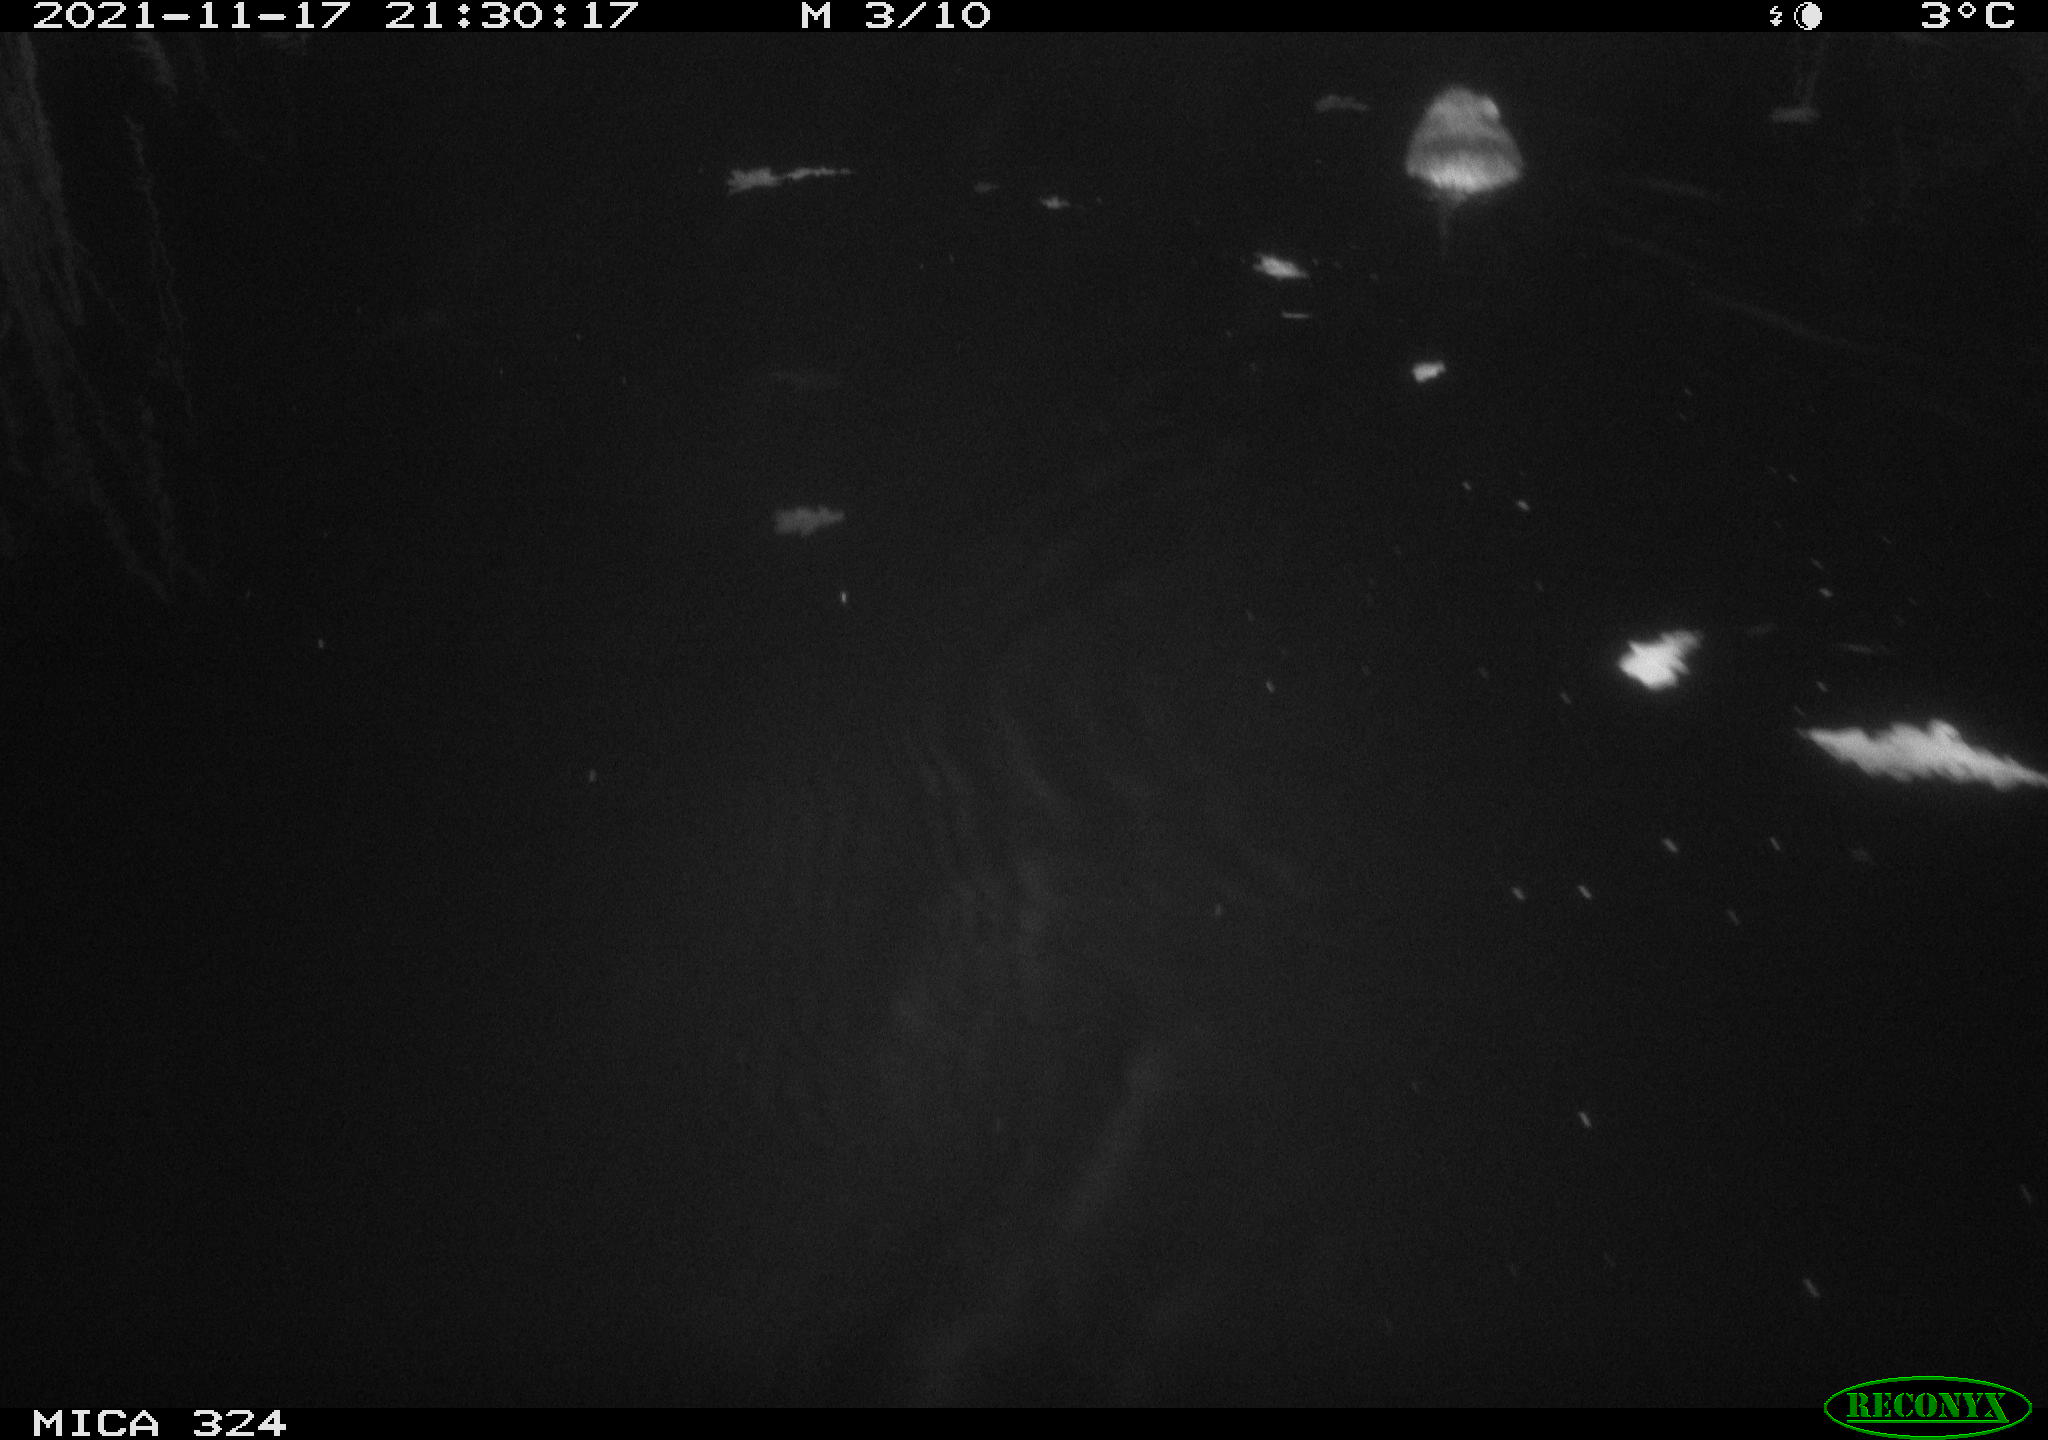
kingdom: Animalia
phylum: Chordata
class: Mammalia
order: Rodentia
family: Cricetidae
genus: Ondatra
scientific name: Ondatra zibethicus
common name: Muskrat
